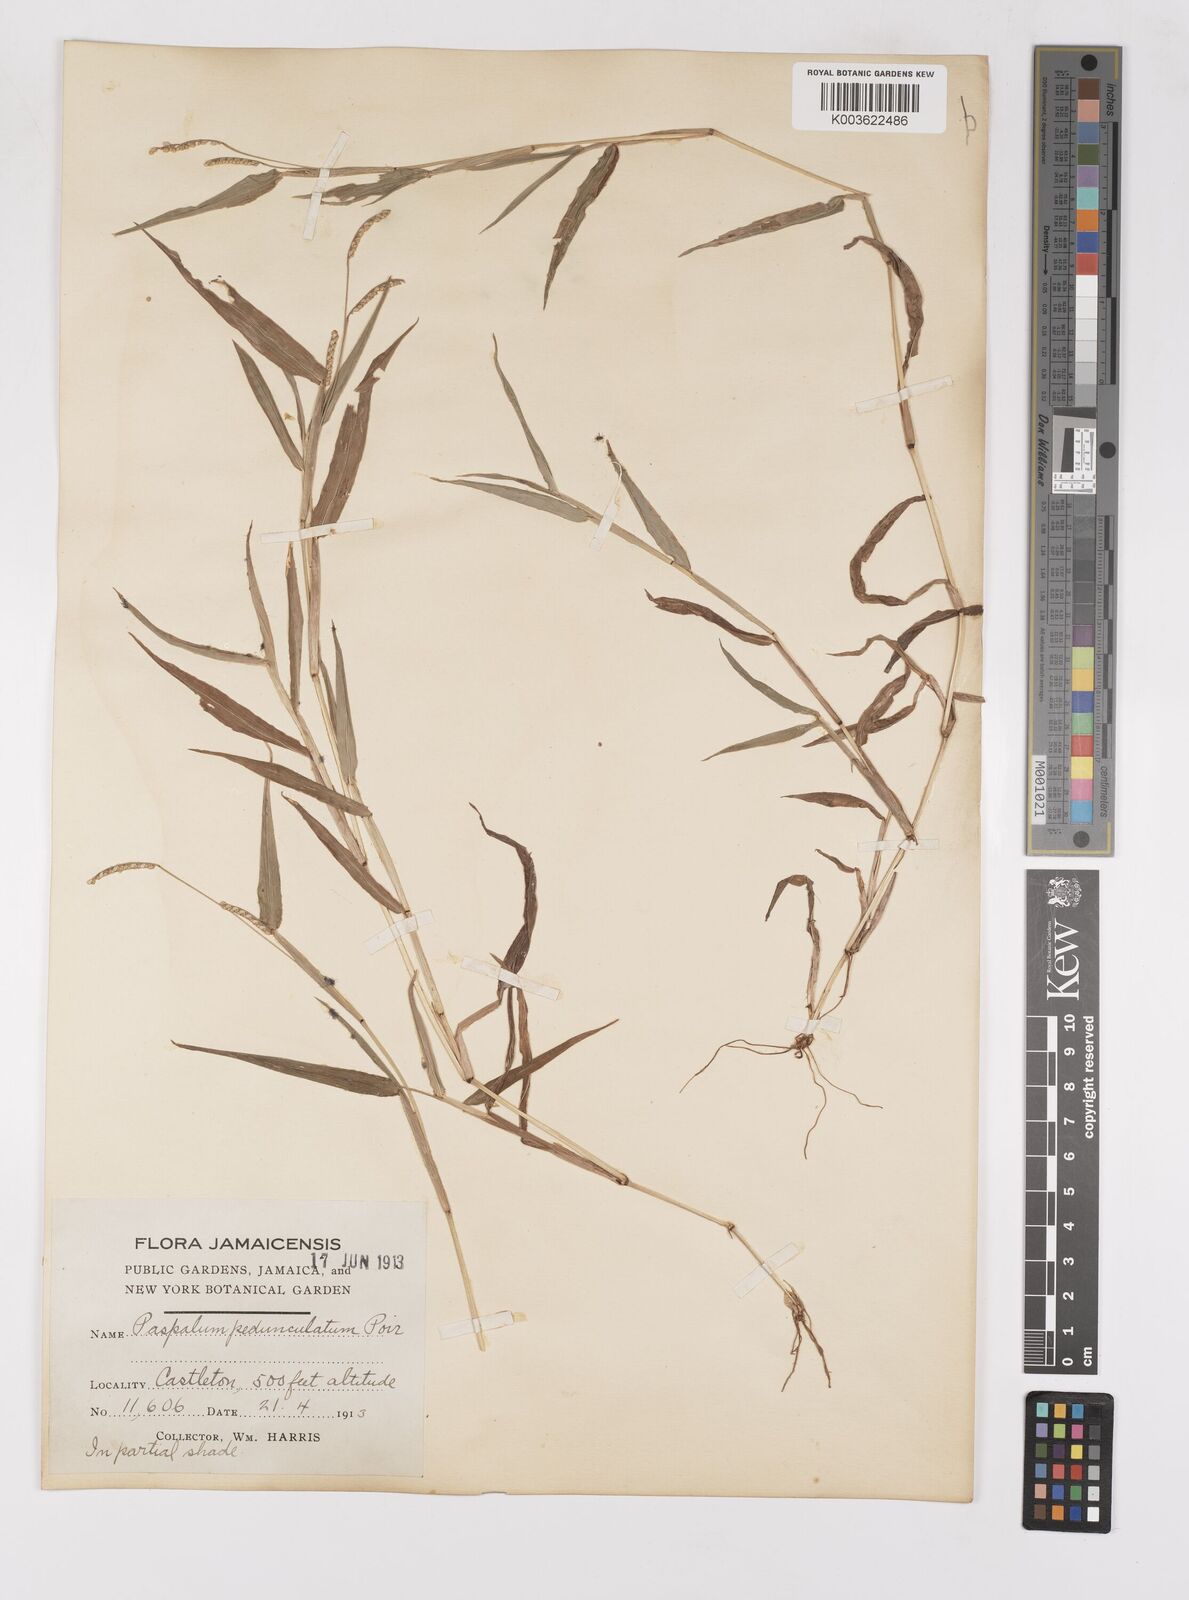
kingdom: Plantae
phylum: Tracheophyta
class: Liliopsida
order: Poales
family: Poaceae
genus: Paspalum
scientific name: Paspalum decumbens
